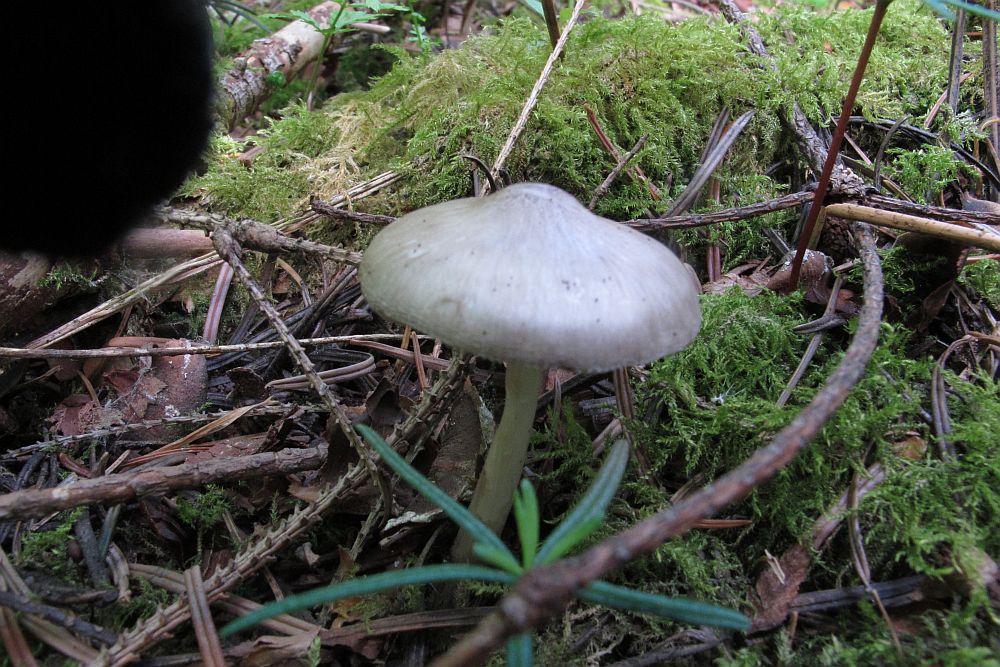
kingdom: Fungi
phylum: Basidiomycota
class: Agaricomycetes
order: Agaricales
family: Pluteaceae
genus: Pluteus
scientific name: Pluteus primus
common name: tidlig skærmhat
